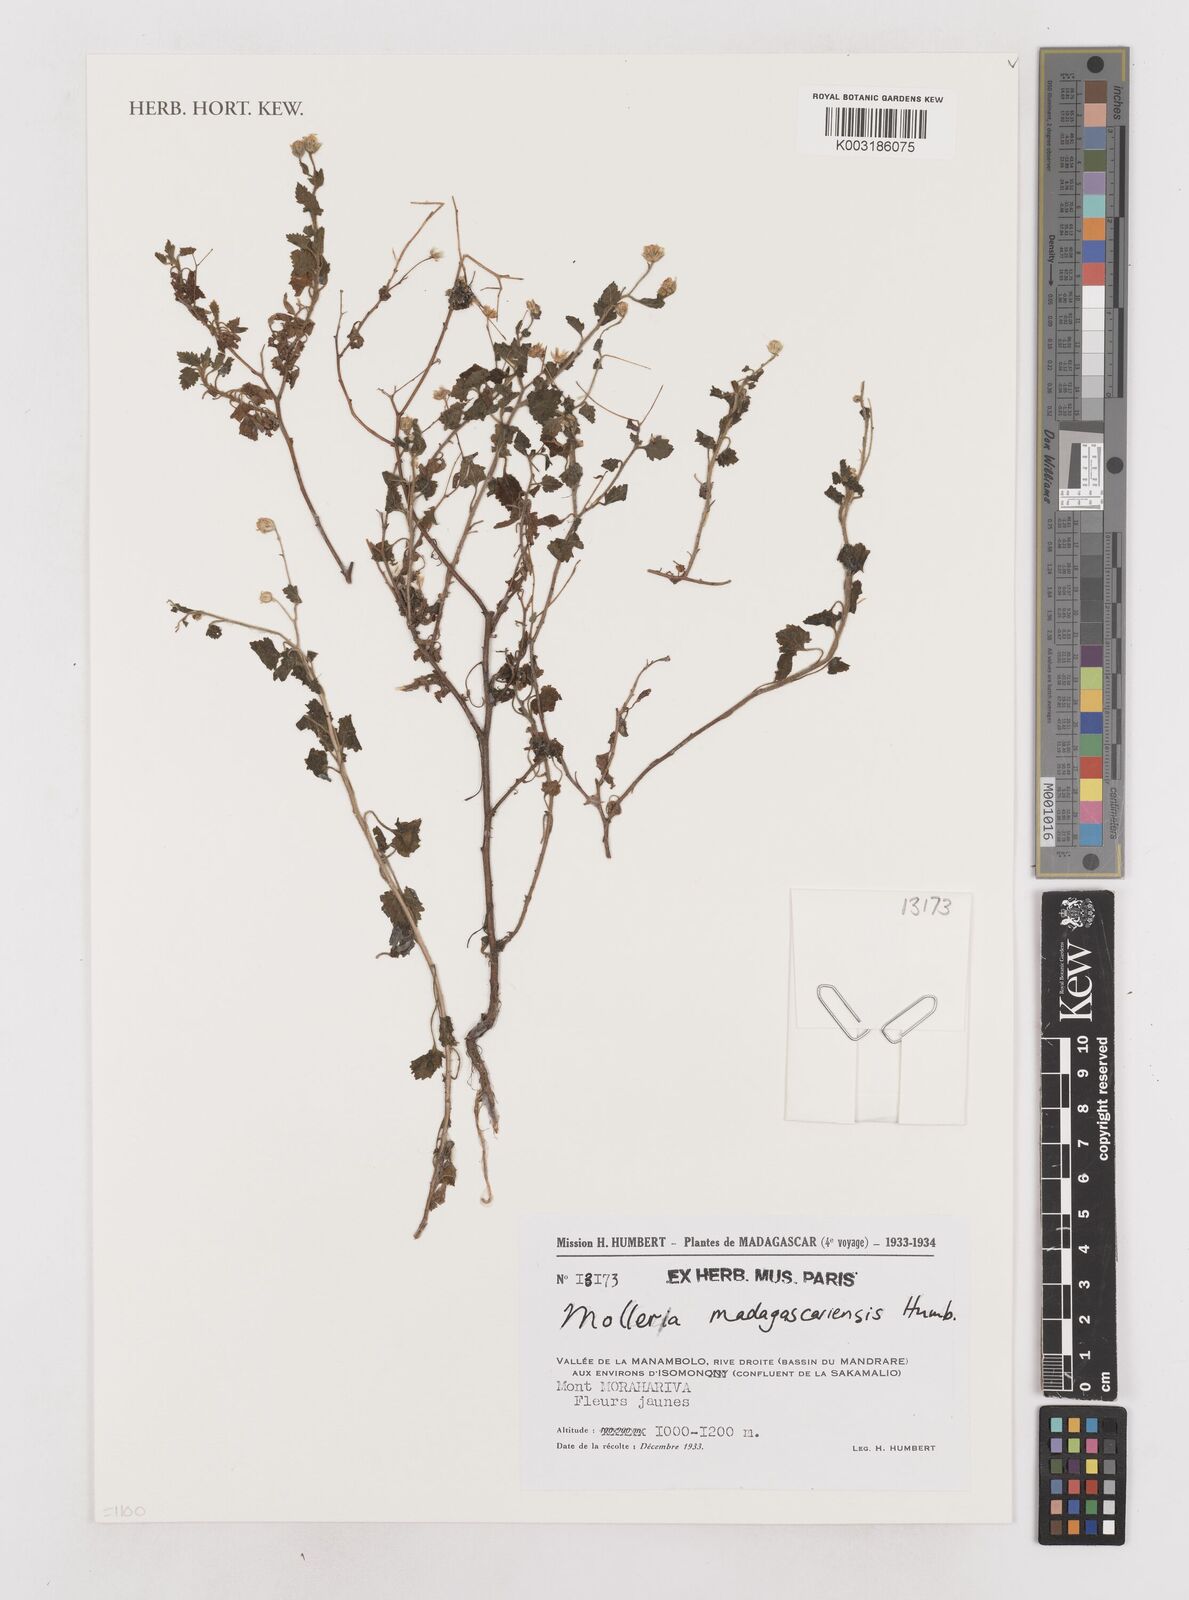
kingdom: Plantae
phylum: Tracheophyta
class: Magnoliopsida
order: Asterales
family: Asteraceae
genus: Calostephane
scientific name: Calostephane madagascariensis
